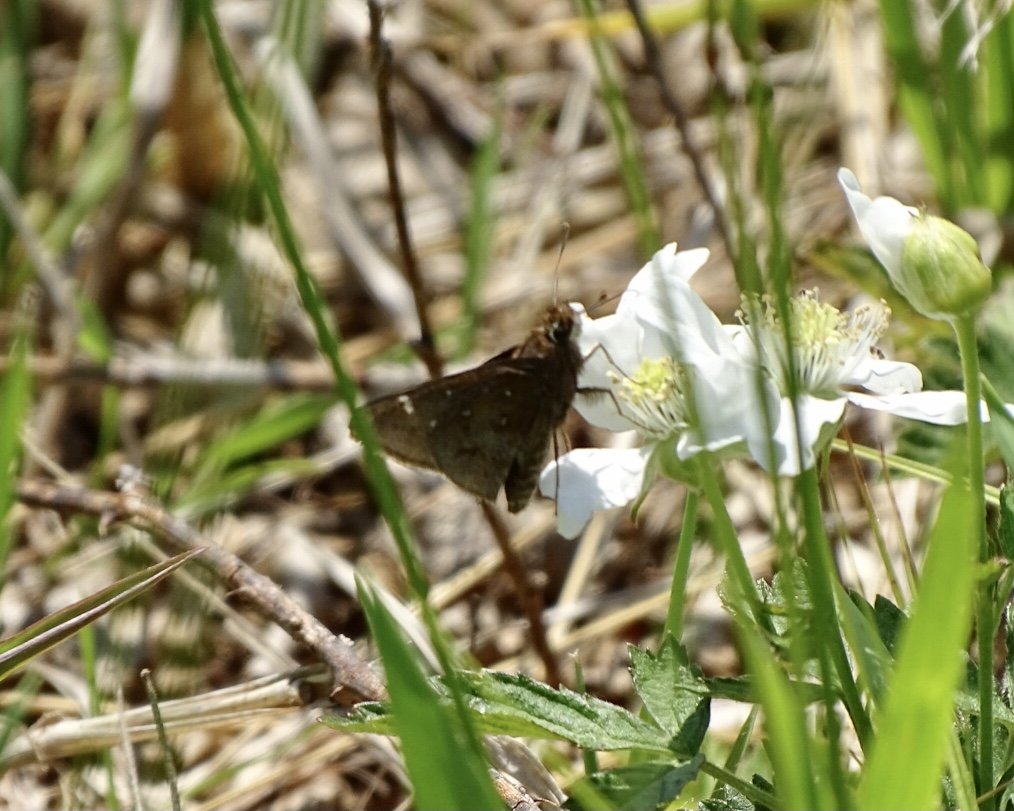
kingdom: Animalia
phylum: Arthropoda
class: Insecta
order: Lepidoptera
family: Hesperiidae
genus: Atrytonopsis
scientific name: Atrytonopsis hianna
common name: Dusted Skipper
